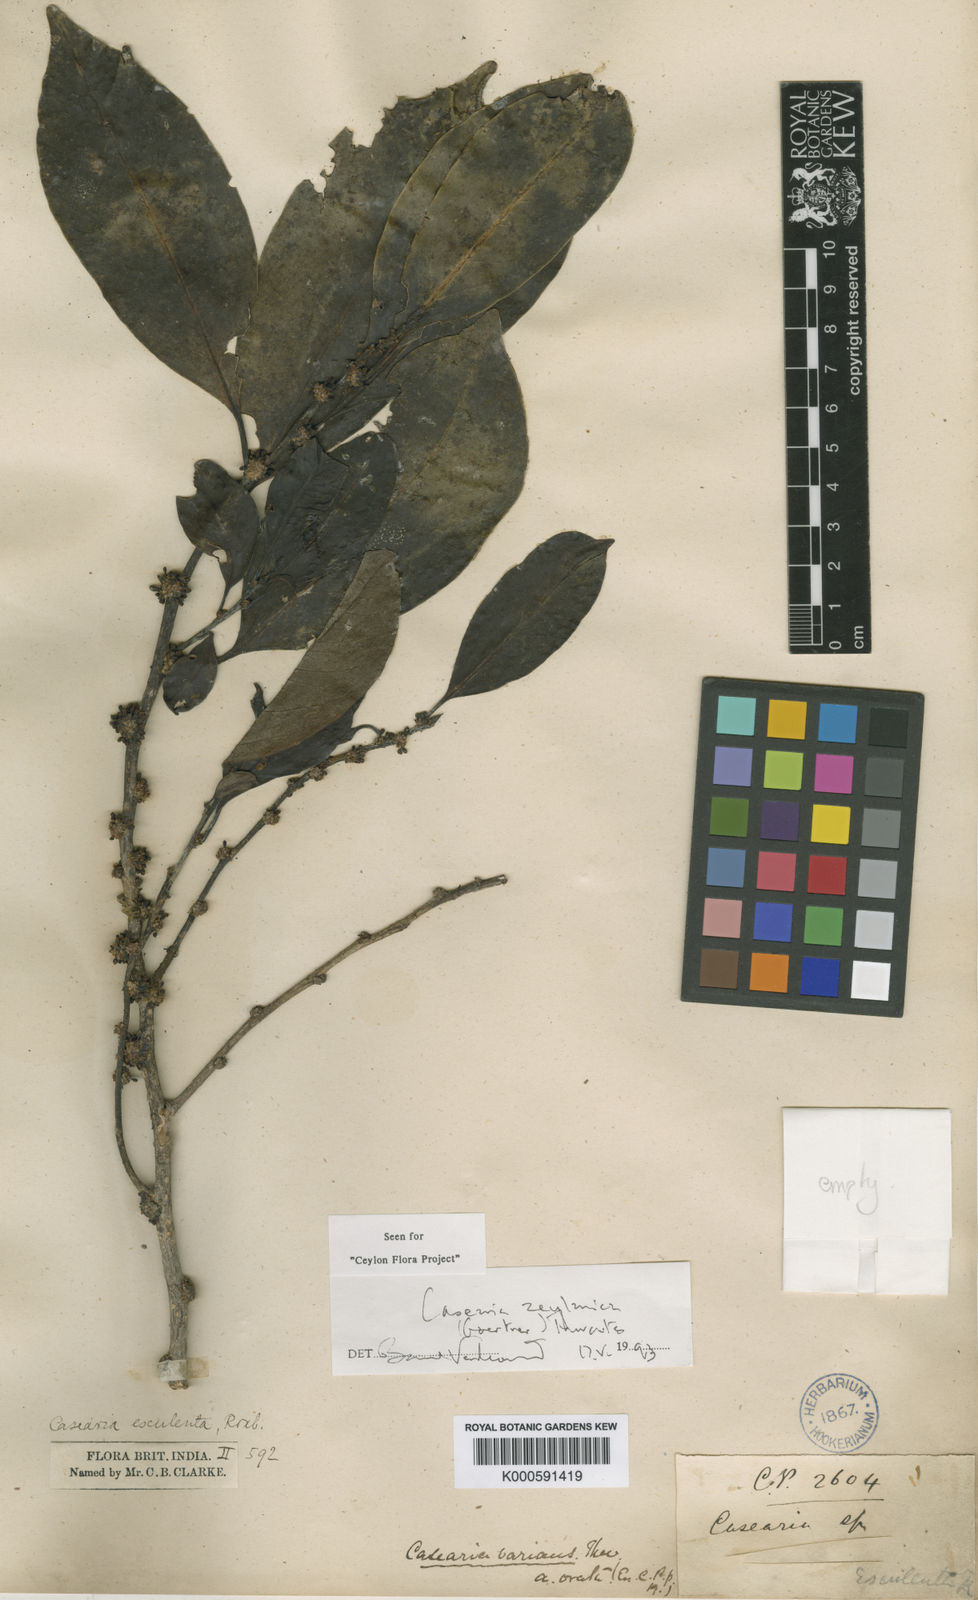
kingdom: Plantae
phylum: Tracheophyta
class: Magnoliopsida
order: Malpighiales
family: Salicaceae
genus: Casearia
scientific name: Casearia zeylanica
